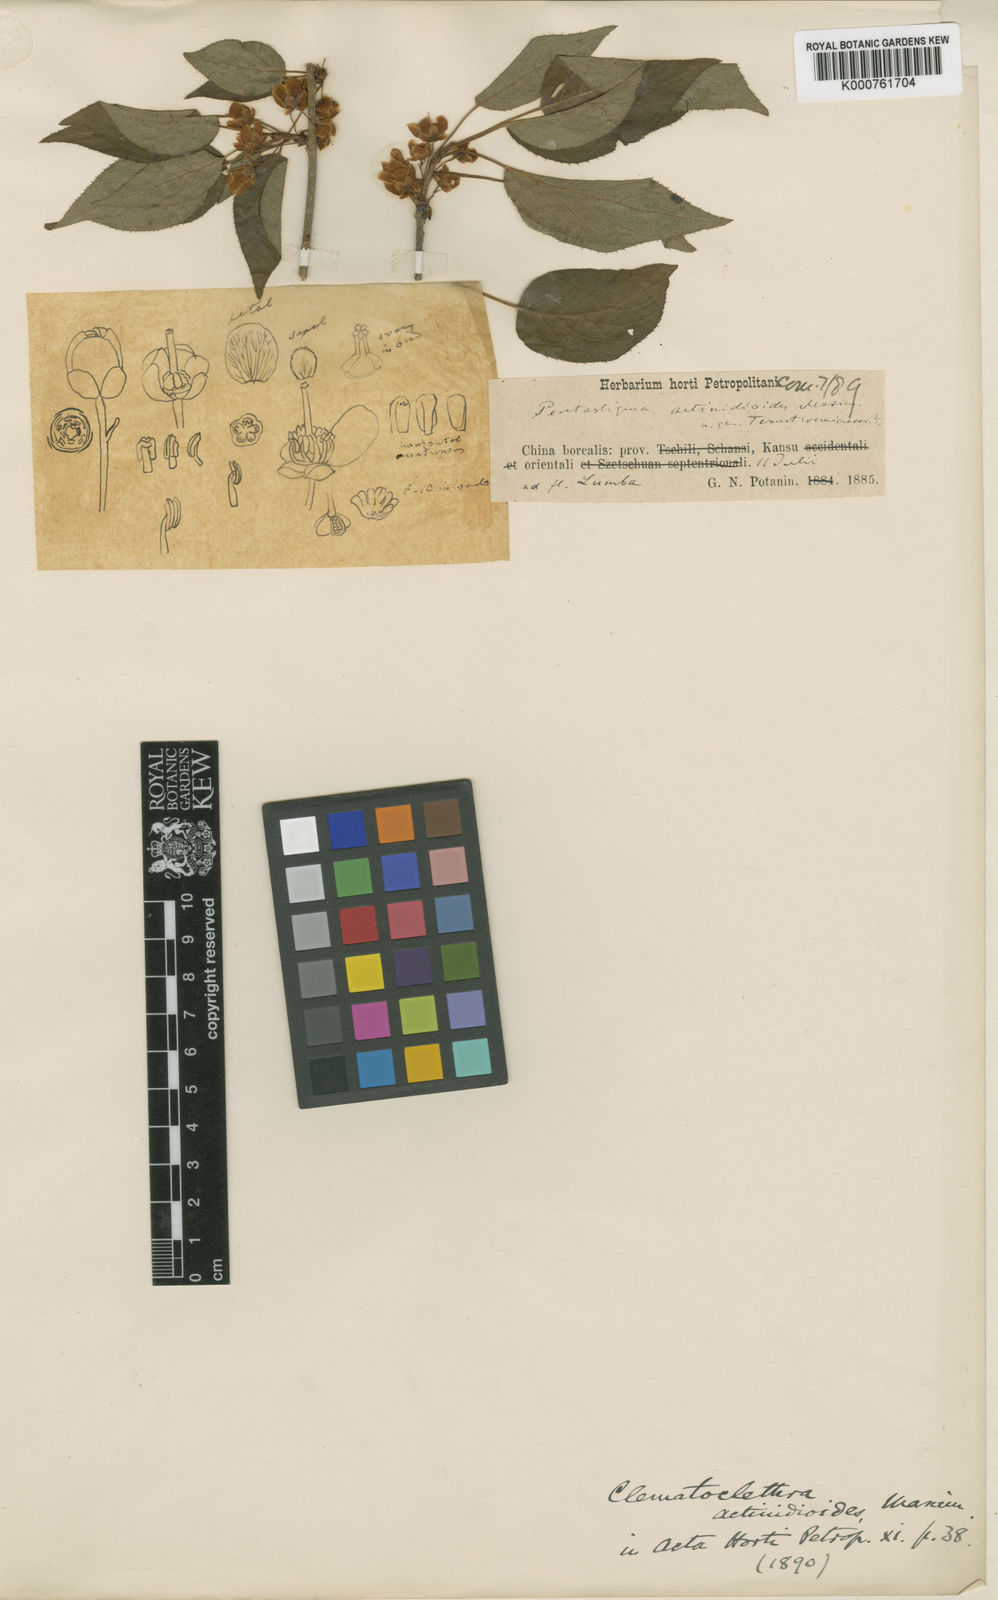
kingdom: Plantae
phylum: Tracheophyta
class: Magnoliopsida
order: Ericales
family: Actinidiaceae
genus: Clematoclethra
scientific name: Clematoclethra scandens
